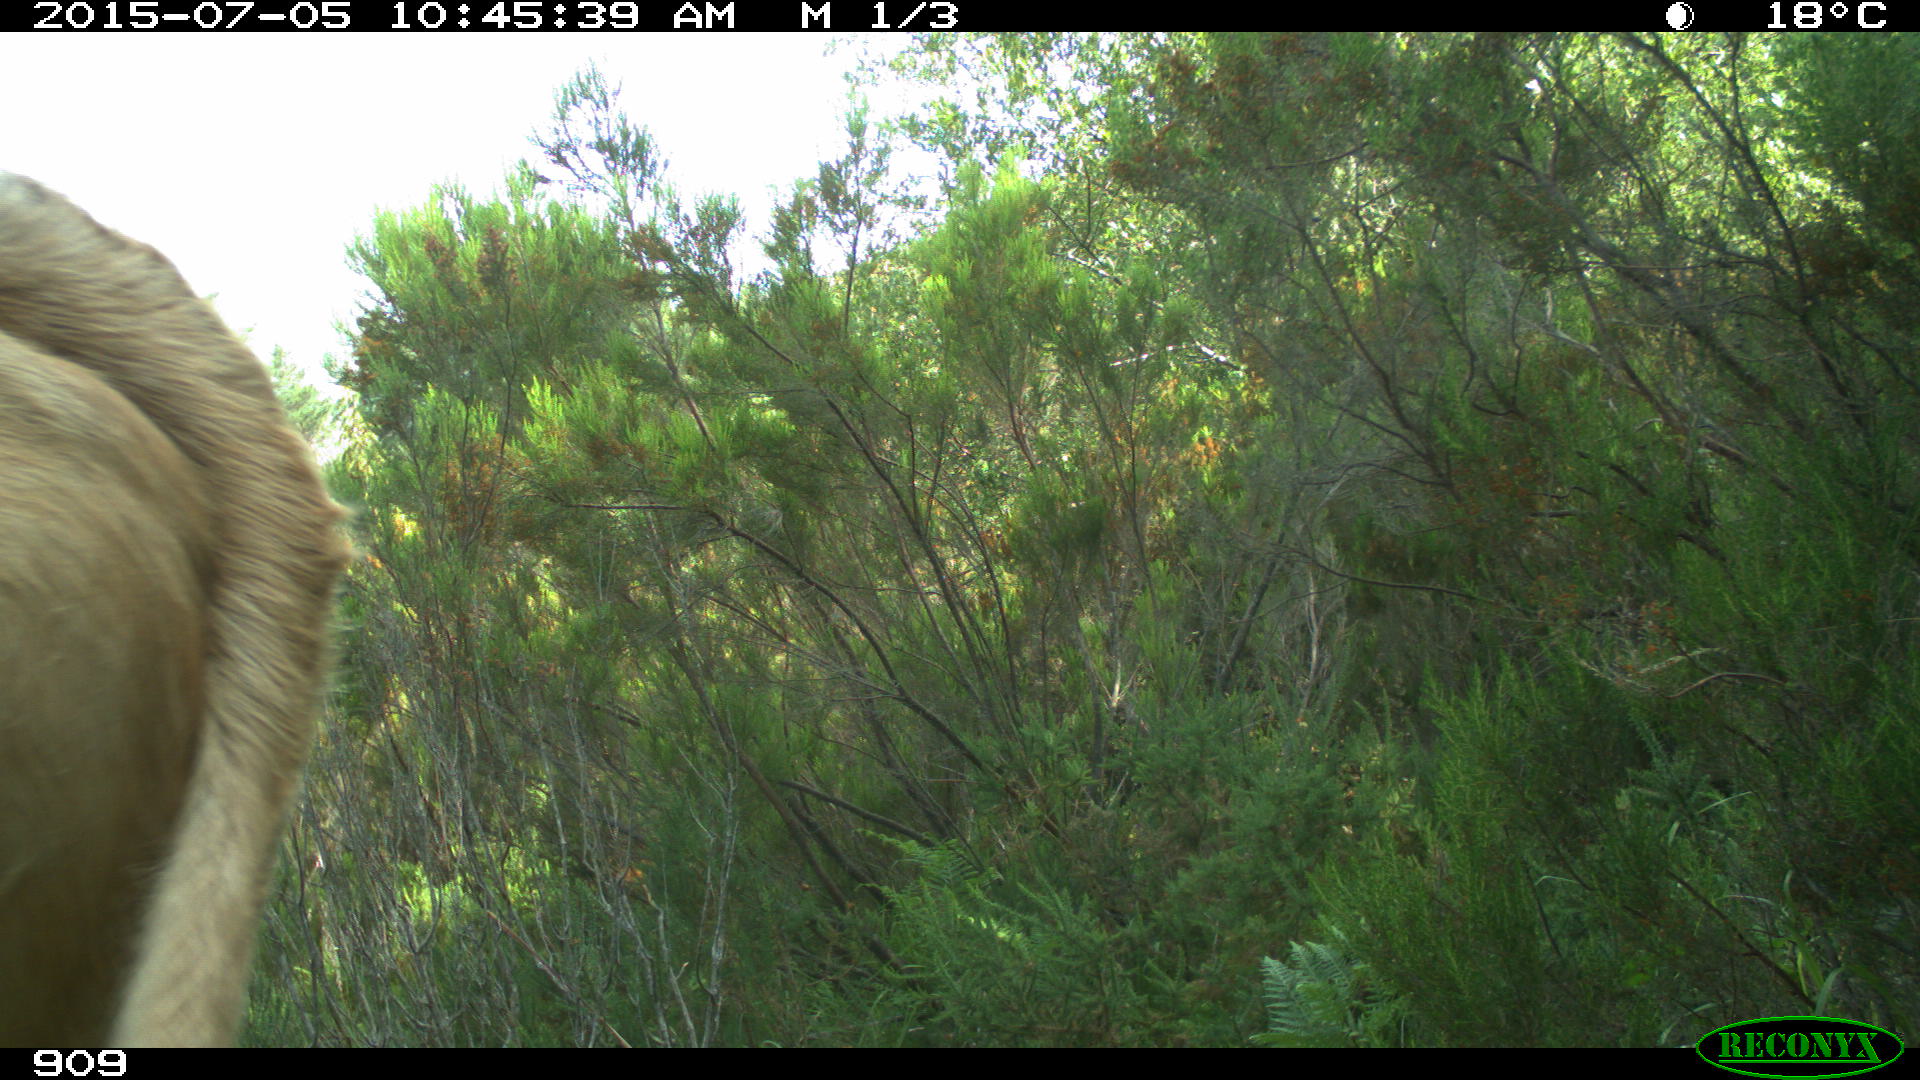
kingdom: Animalia
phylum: Chordata
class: Mammalia
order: Artiodactyla
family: Bovidae
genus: Bos
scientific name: Bos taurus
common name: Domesticated cattle
